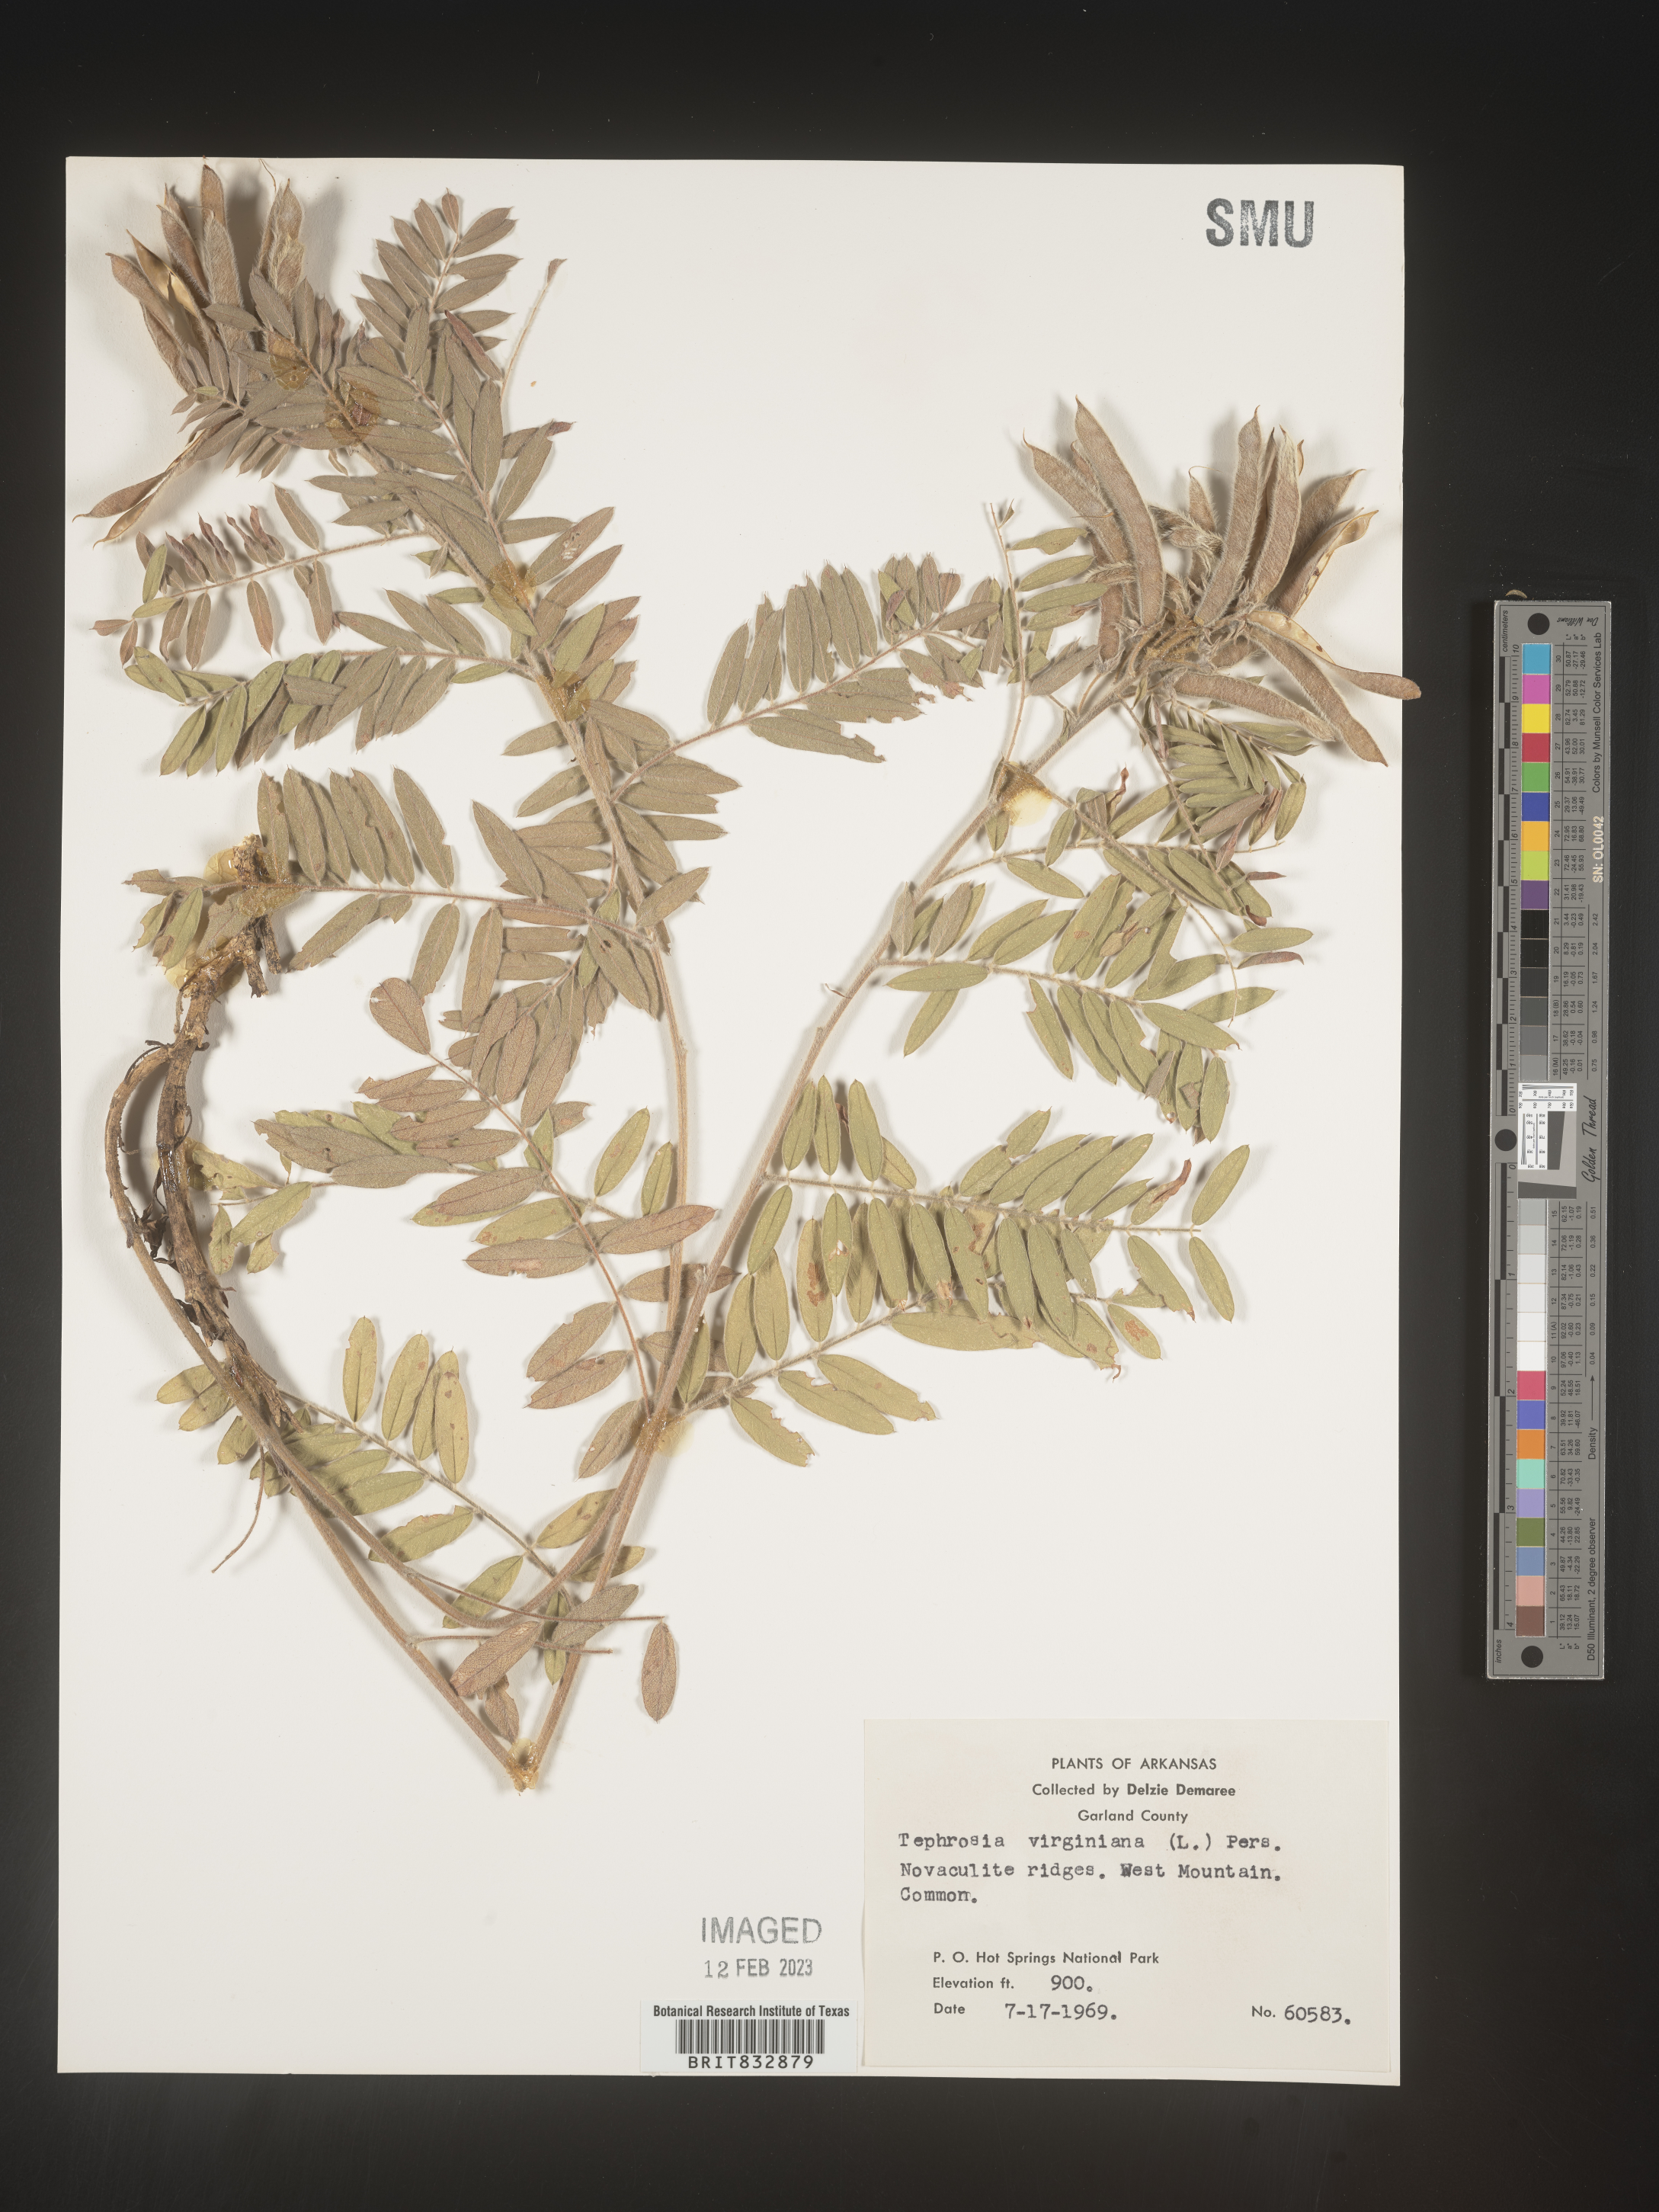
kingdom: Plantae
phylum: Tracheophyta
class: Magnoliopsida
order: Fabales
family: Fabaceae
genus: Tephrosia
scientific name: Tephrosia virginiana
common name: Rabbit-pea
